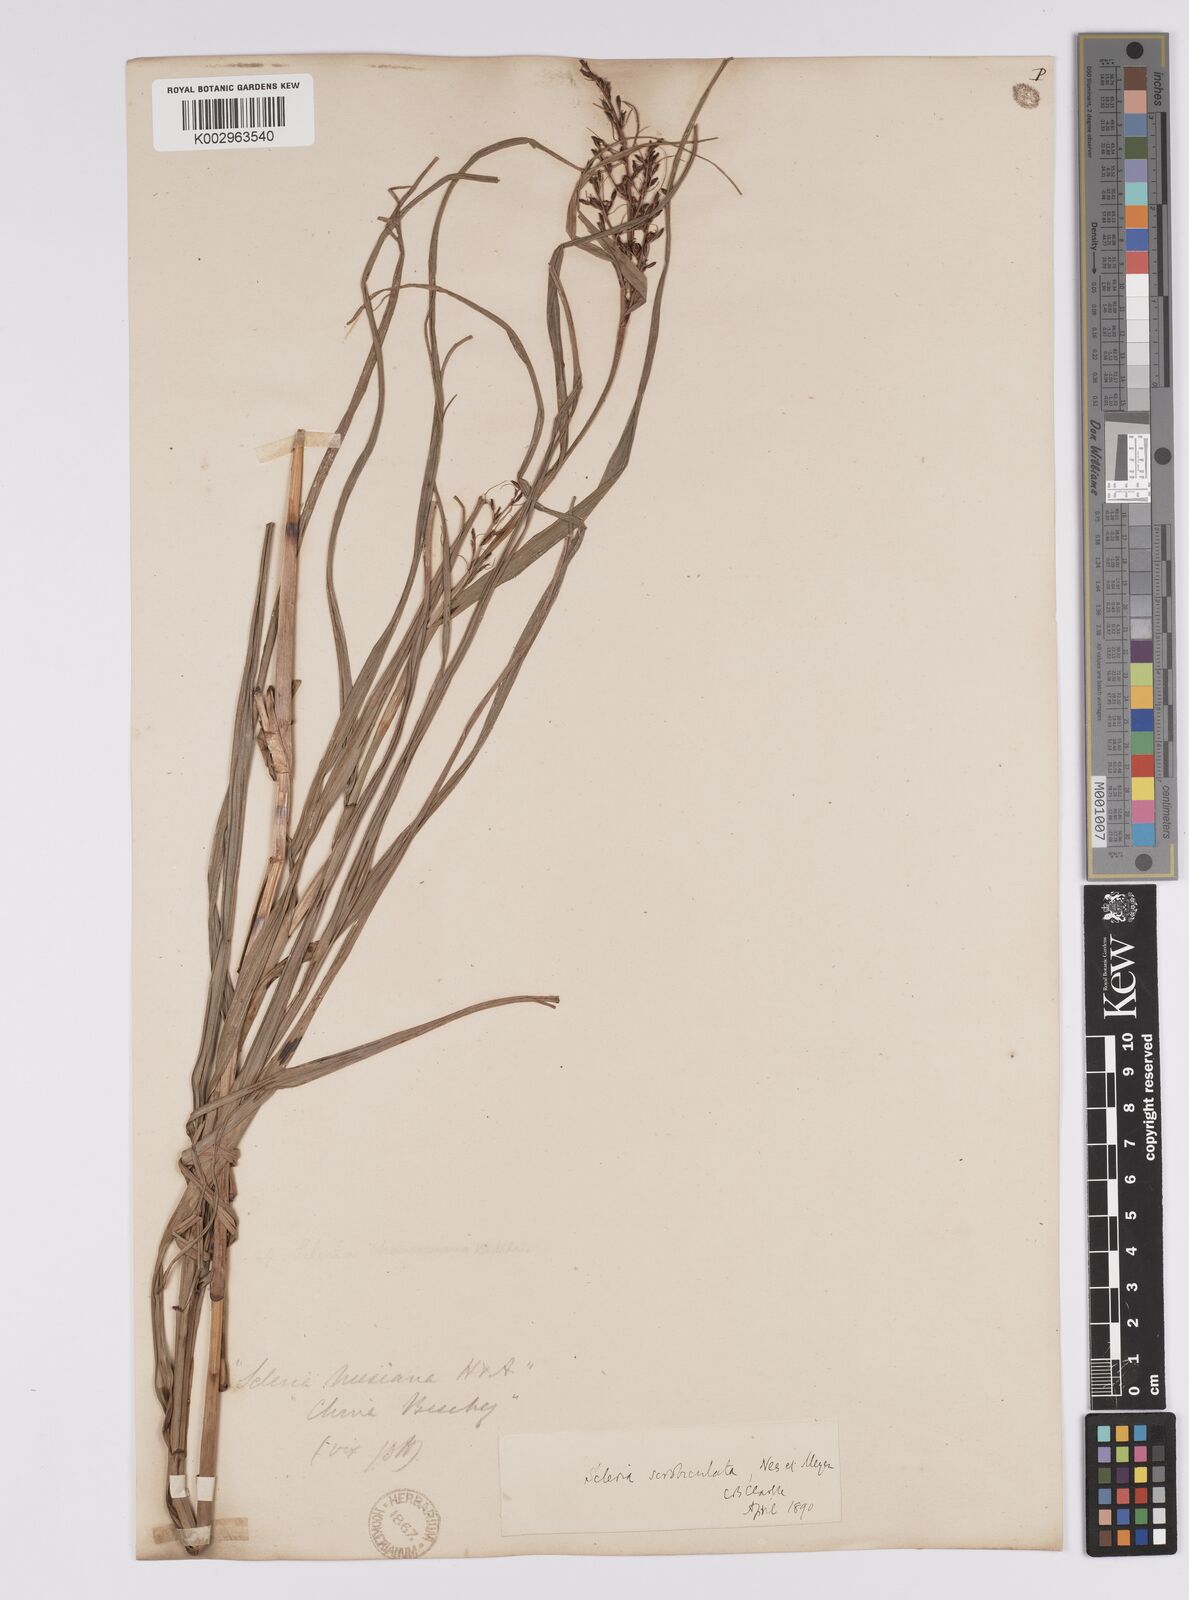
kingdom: Plantae
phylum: Tracheophyta
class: Liliopsida
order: Poales
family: Cyperaceae
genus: Scleria
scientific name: Scleria scrobiculata
